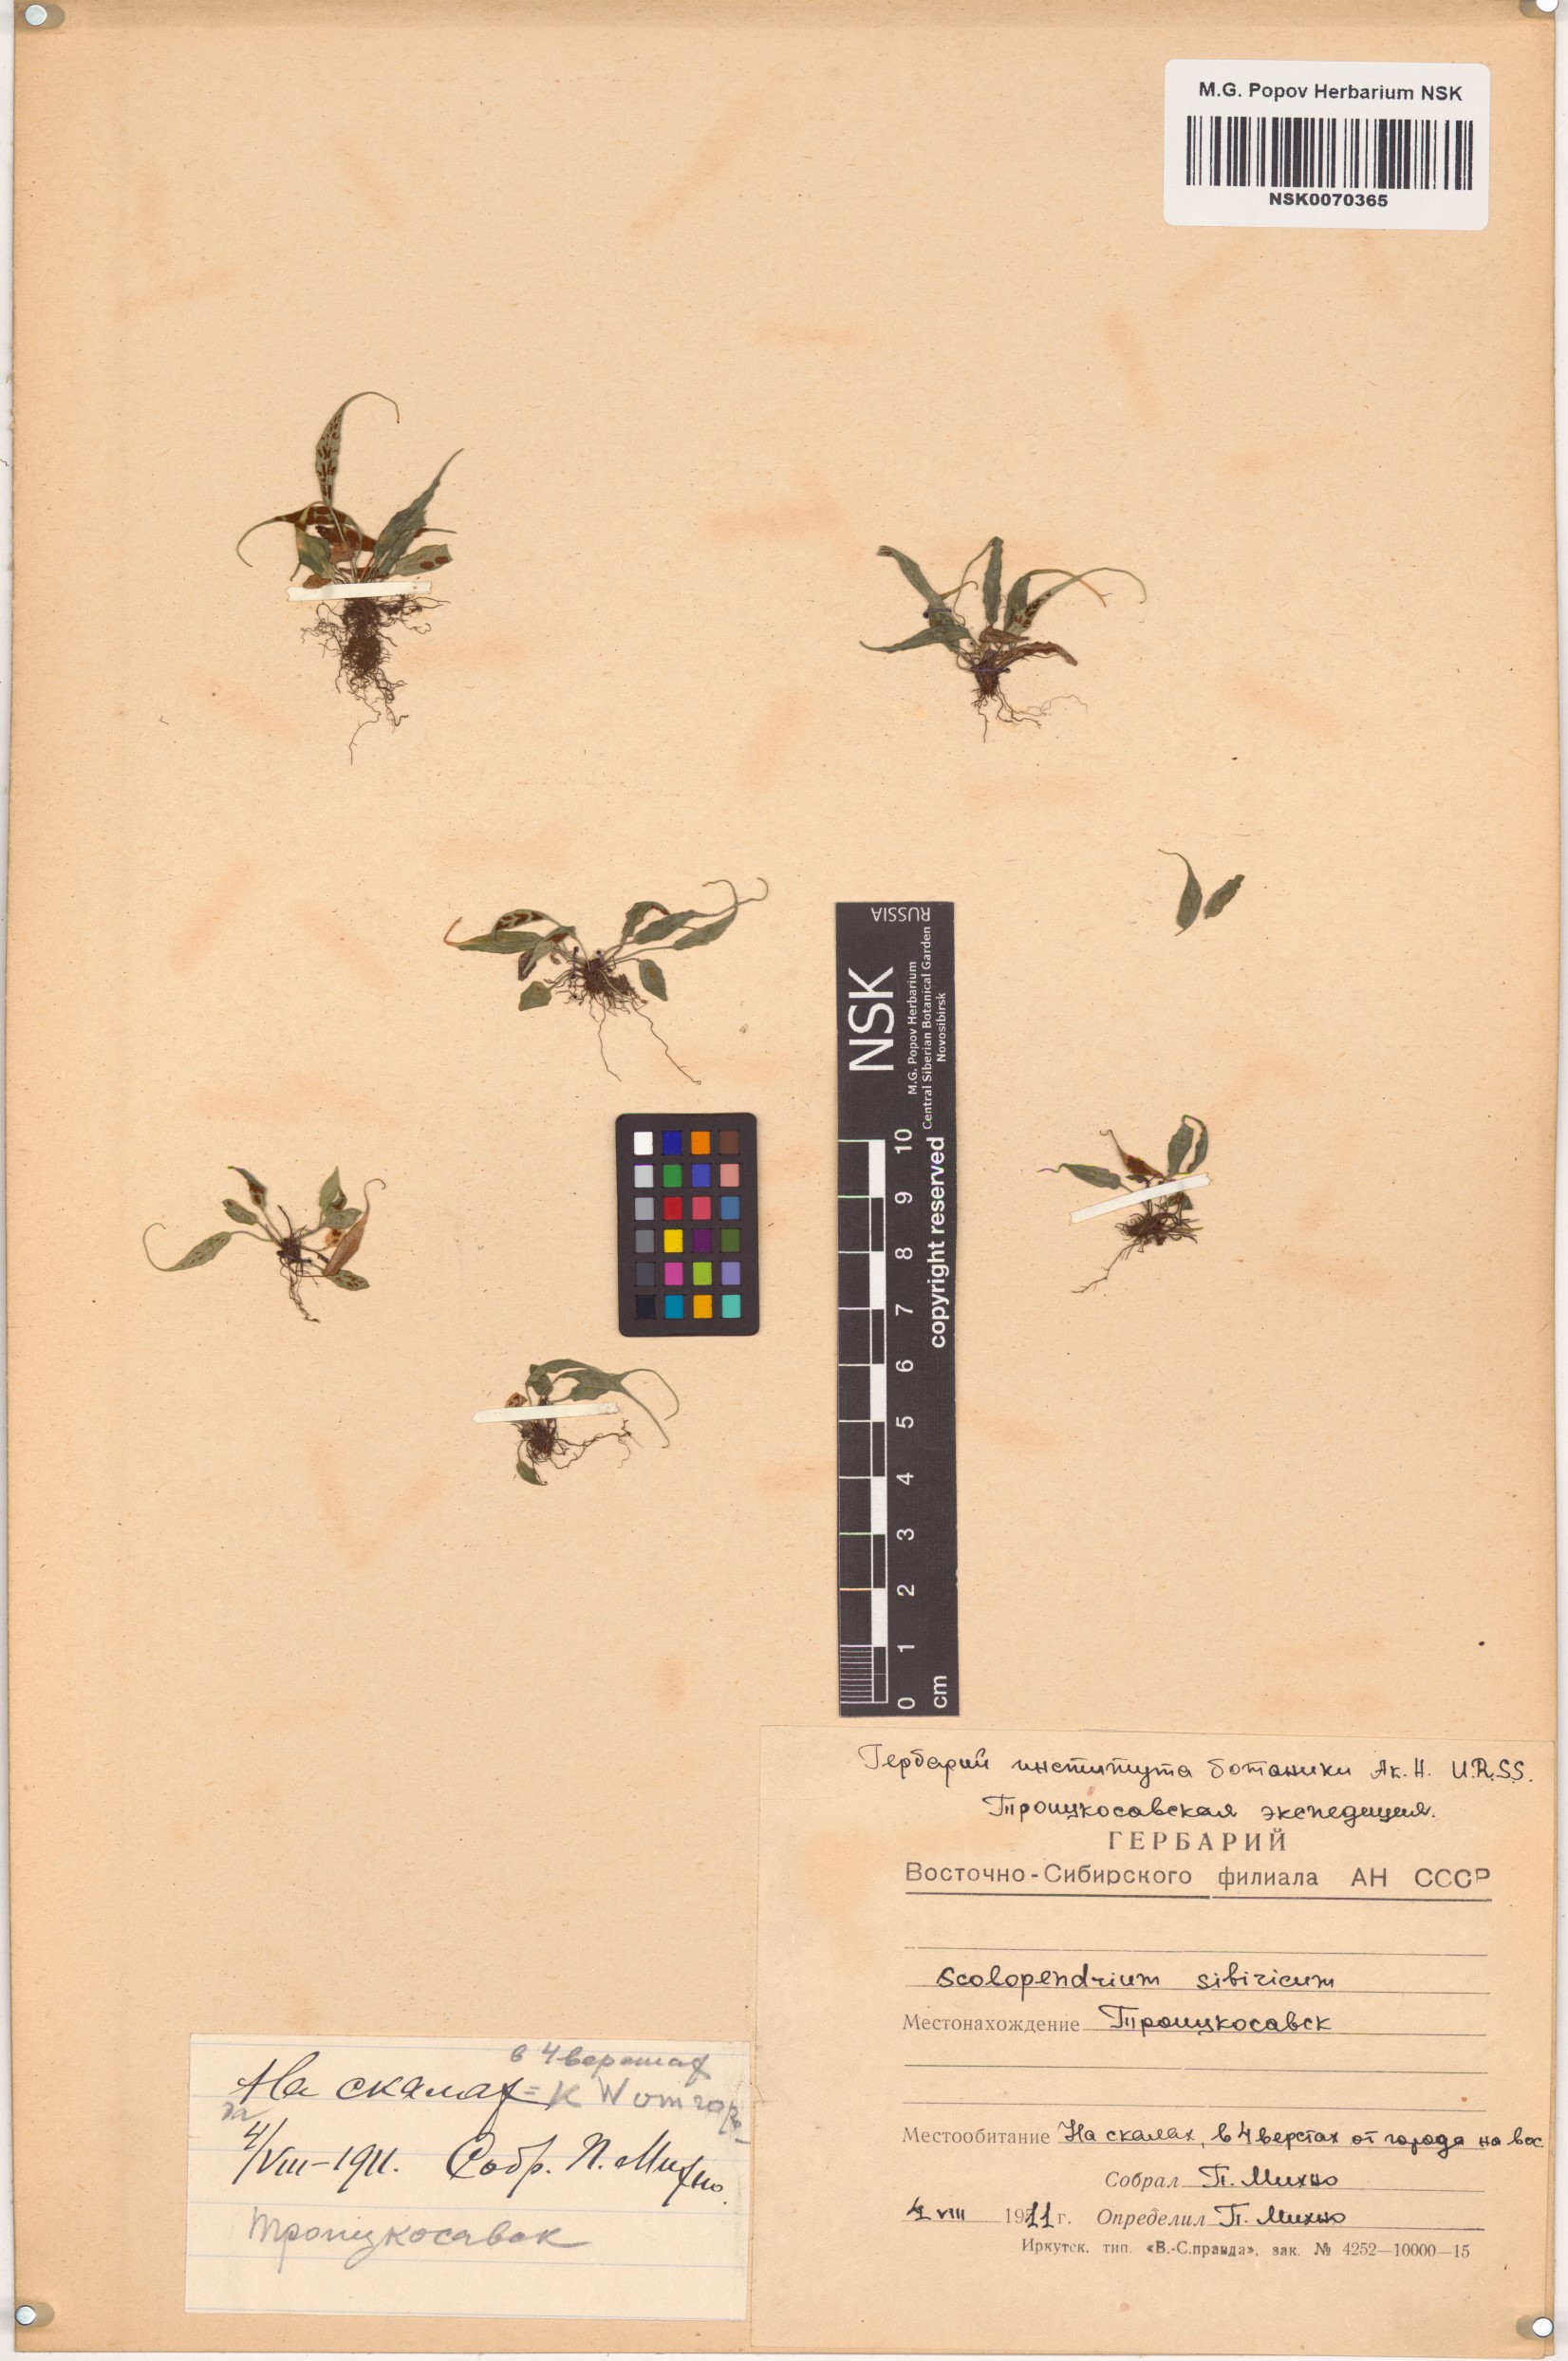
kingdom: Plantae
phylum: Tracheophyta
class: Polypodiopsida
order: Polypodiales
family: Aspleniaceae
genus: Asplenium
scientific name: Asplenium ruprechtii
